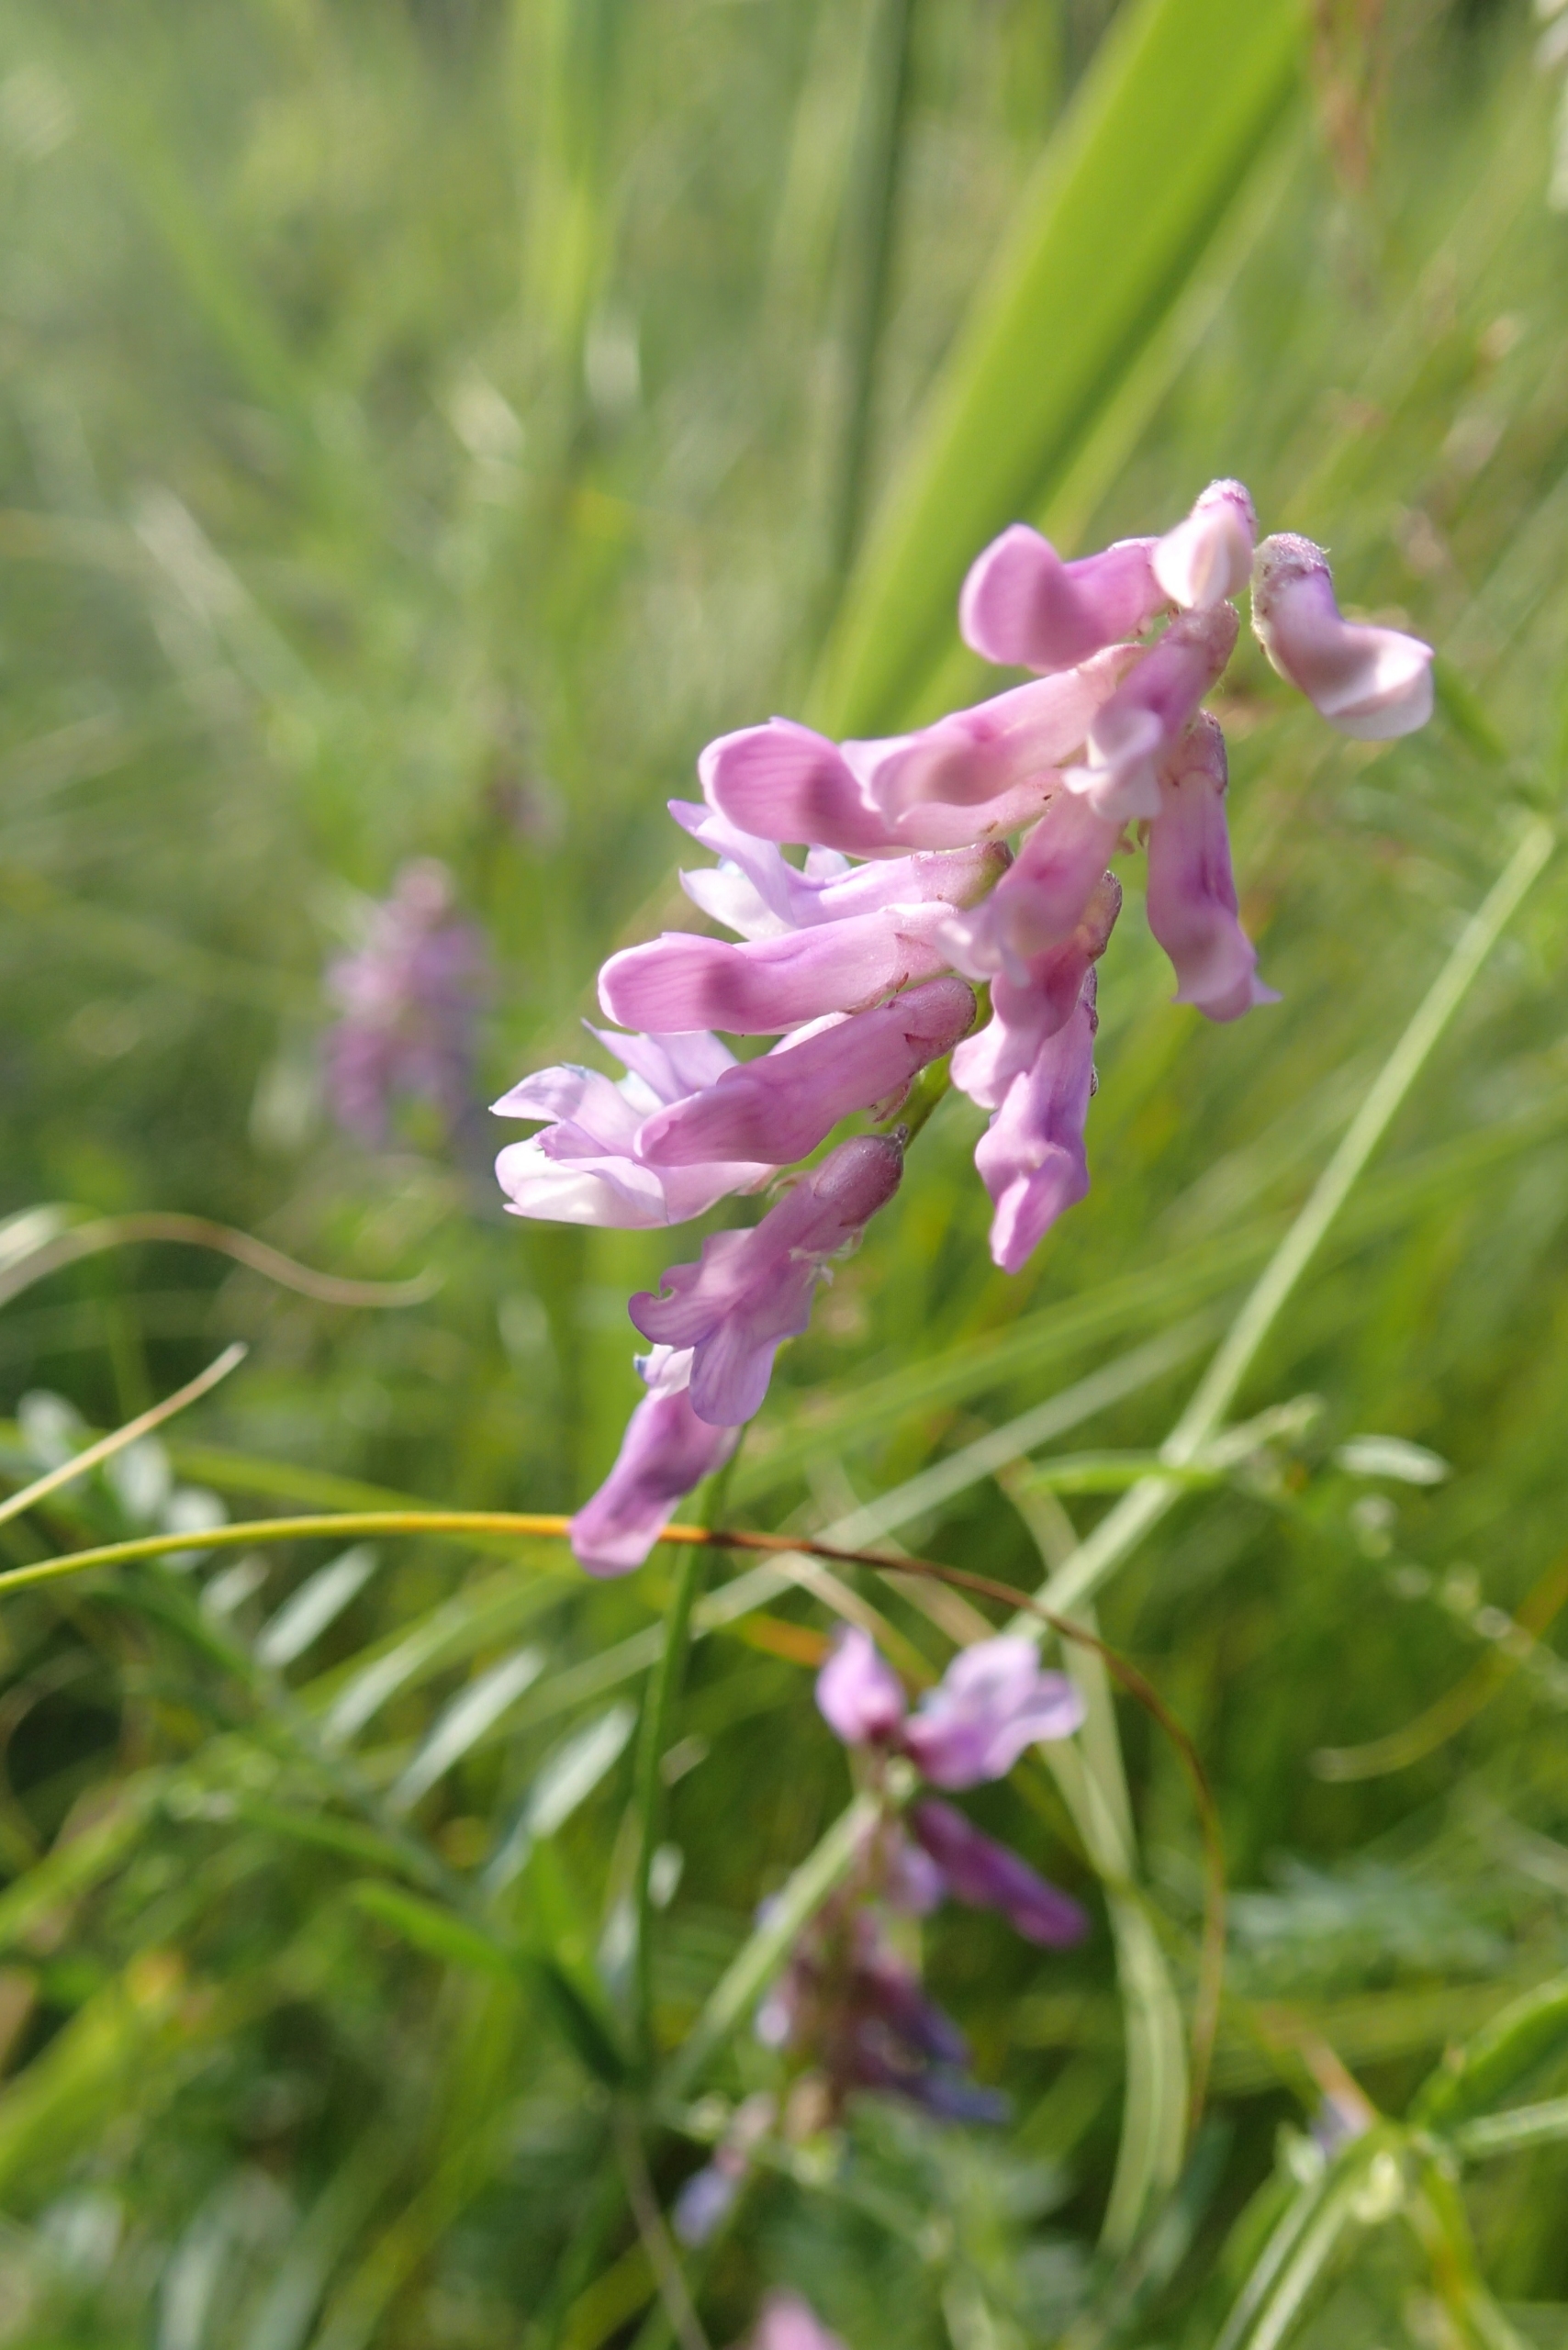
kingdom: Plantae
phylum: Tracheophyta
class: Magnoliopsida
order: Fabales
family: Fabaceae
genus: Vicia
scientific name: Vicia cracca
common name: Muse-vikke
